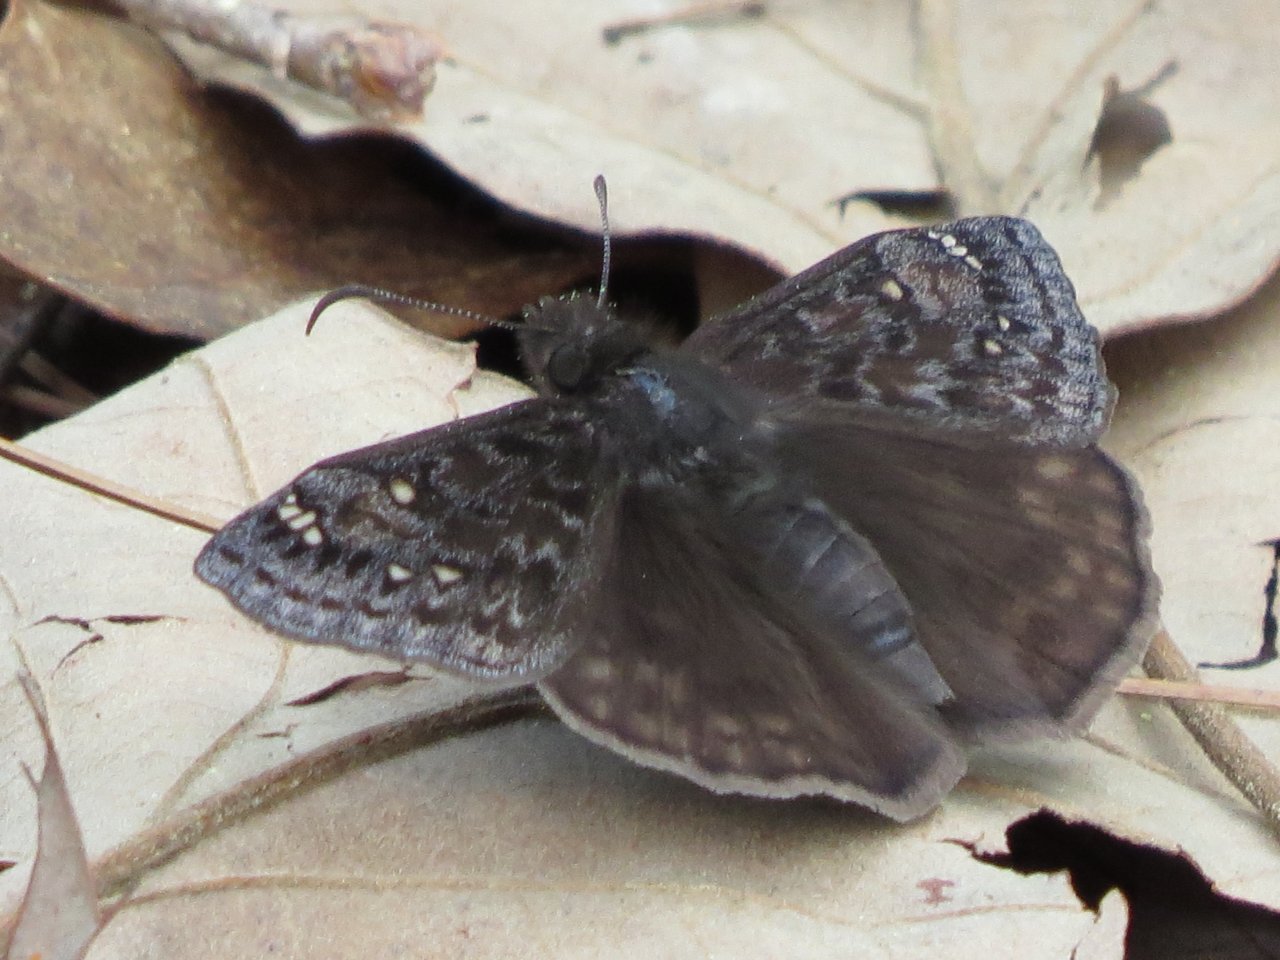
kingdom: Animalia
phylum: Arthropoda
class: Insecta
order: Lepidoptera
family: Hesperiidae
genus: Gesta
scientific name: Gesta
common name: Juvenal's Duskywing
